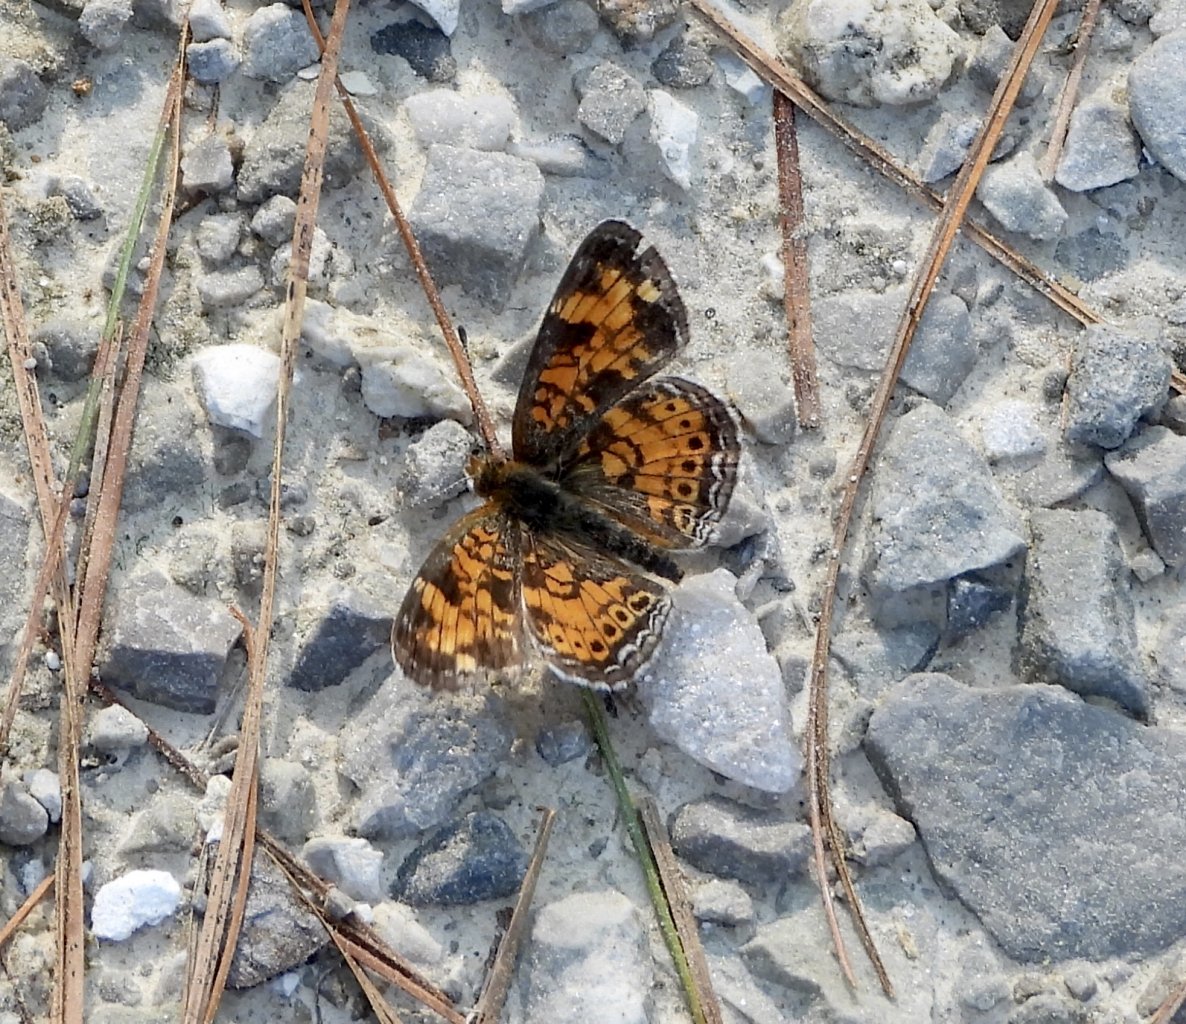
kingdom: Animalia
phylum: Arthropoda
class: Insecta
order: Lepidoptera
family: Nymphalidae
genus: Phyciodes
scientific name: Phyciodes tharos
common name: Pearl Crescent
